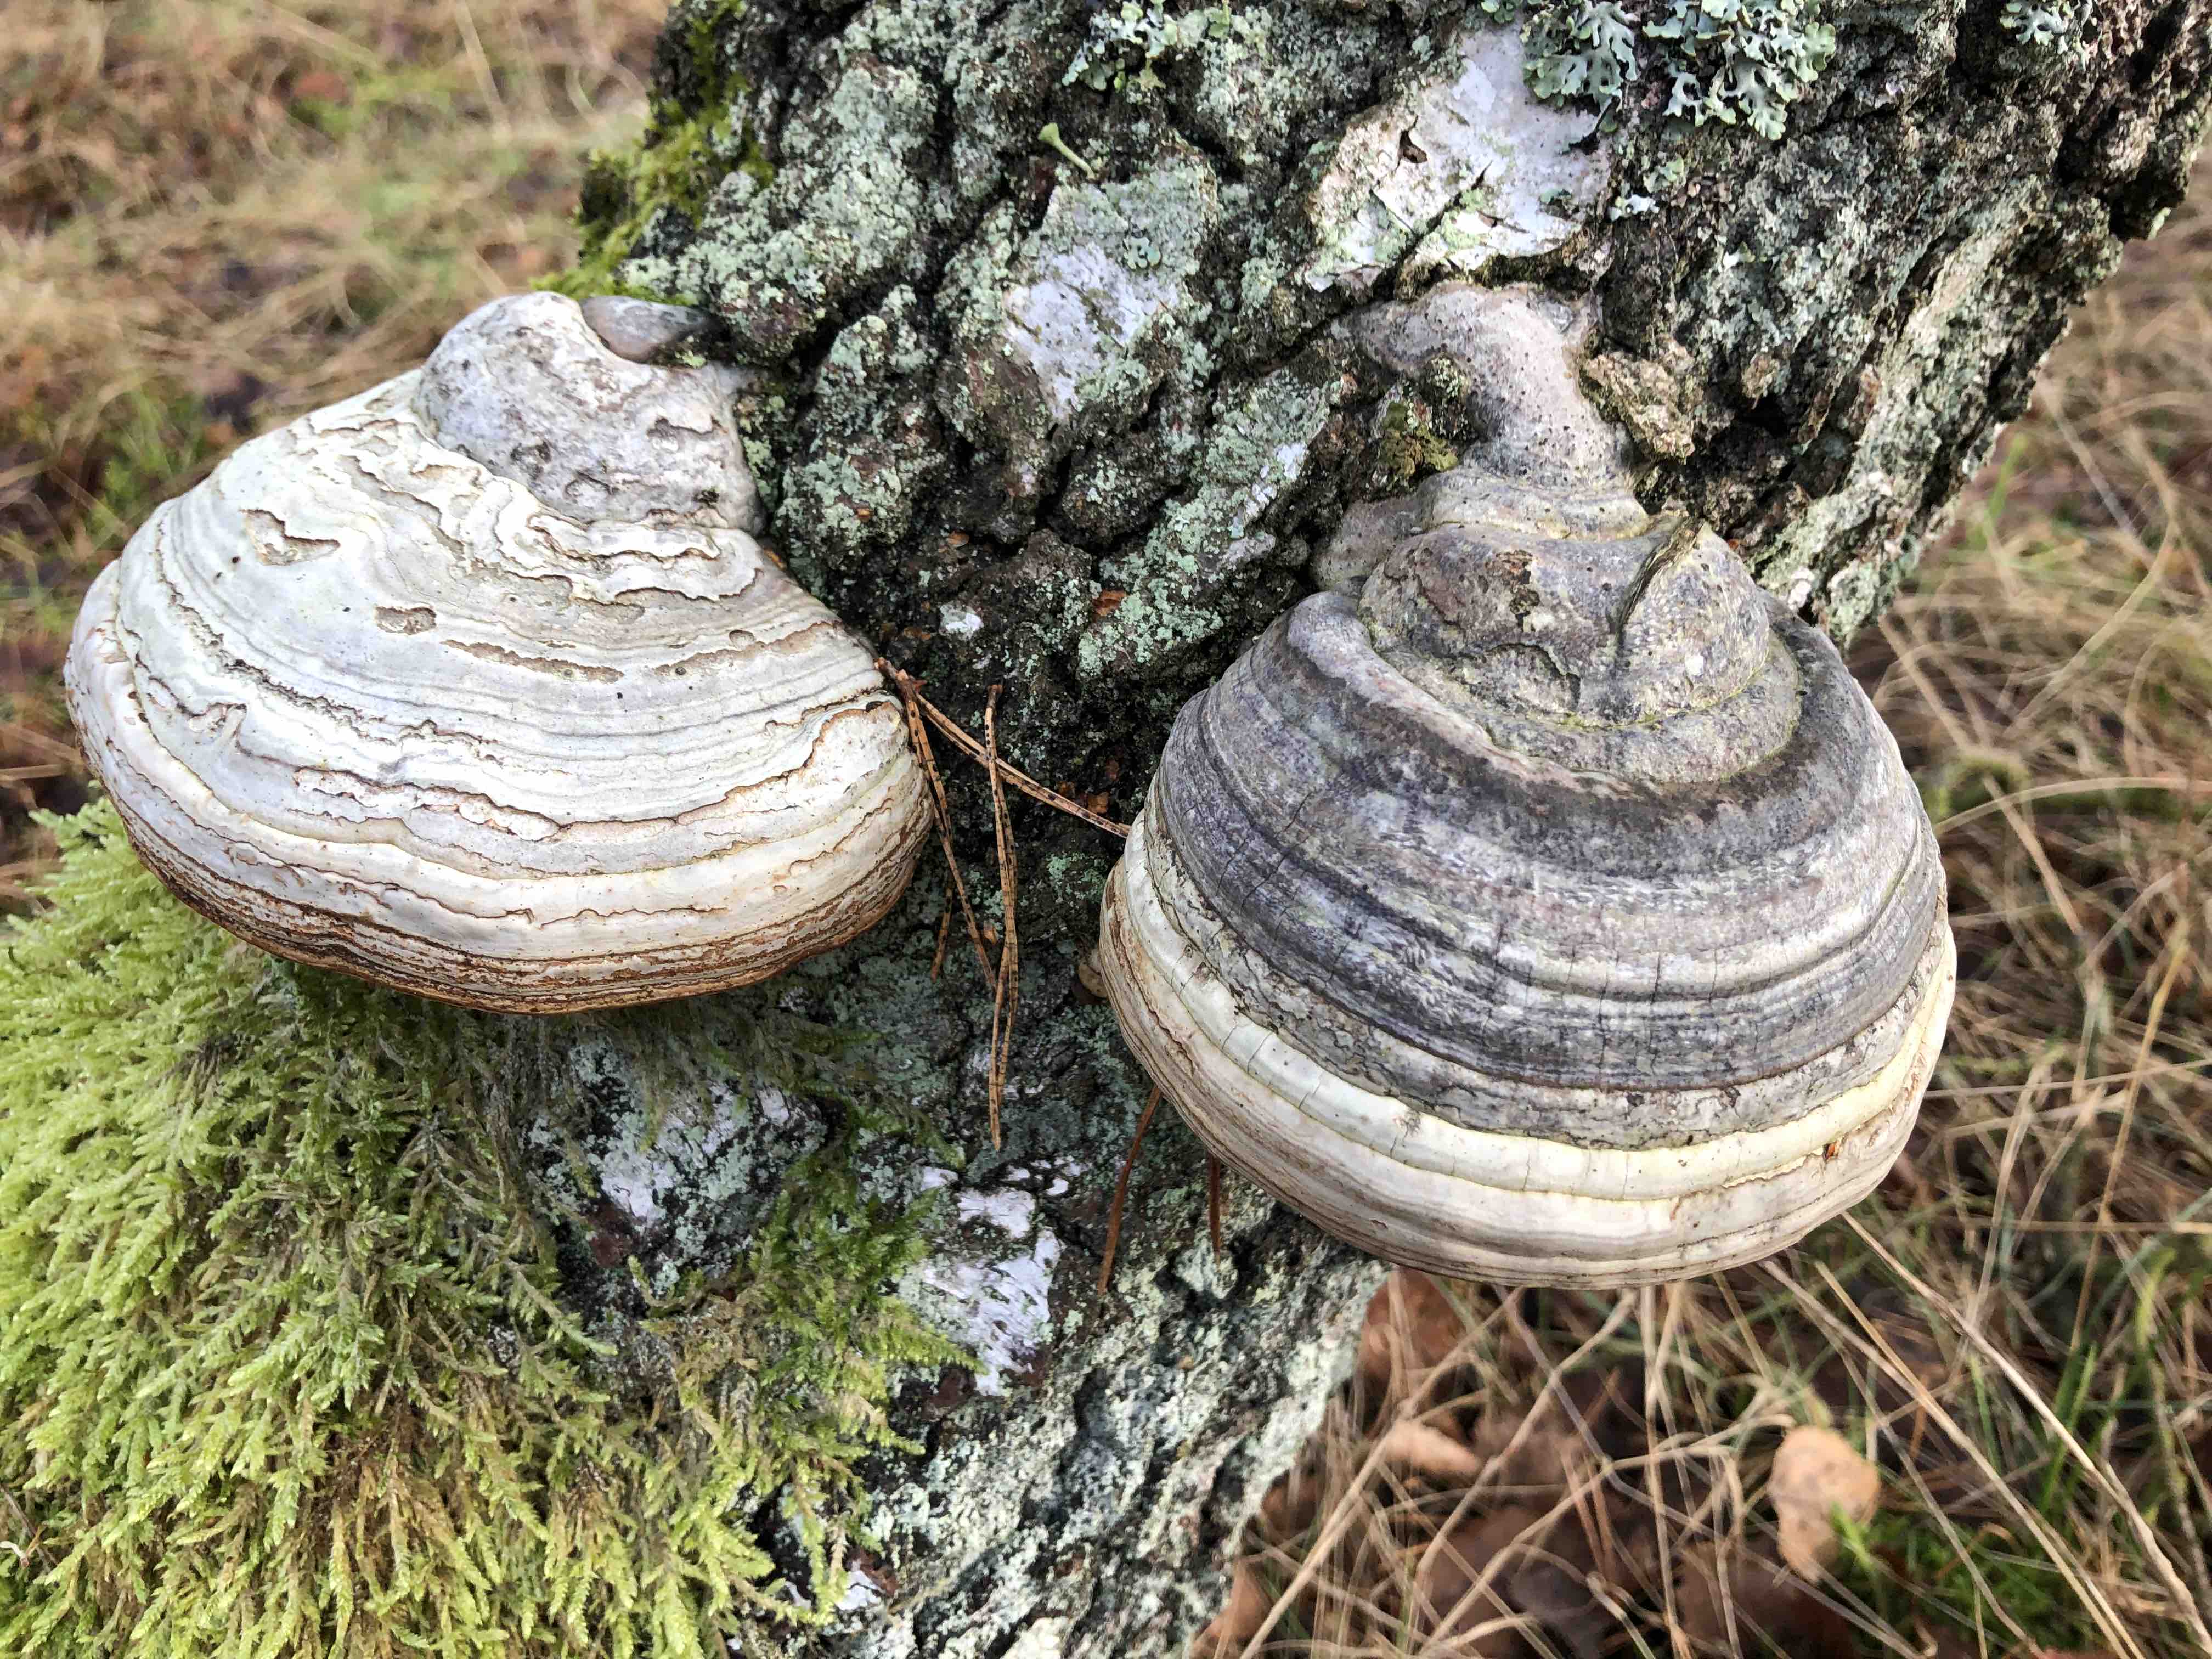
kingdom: Fungi
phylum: Basidiomycota
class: Agaricomycetes
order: Polyporales
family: Polyporaceae
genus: Fomes
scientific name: Fomes fomentarius
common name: tøndersvamp
